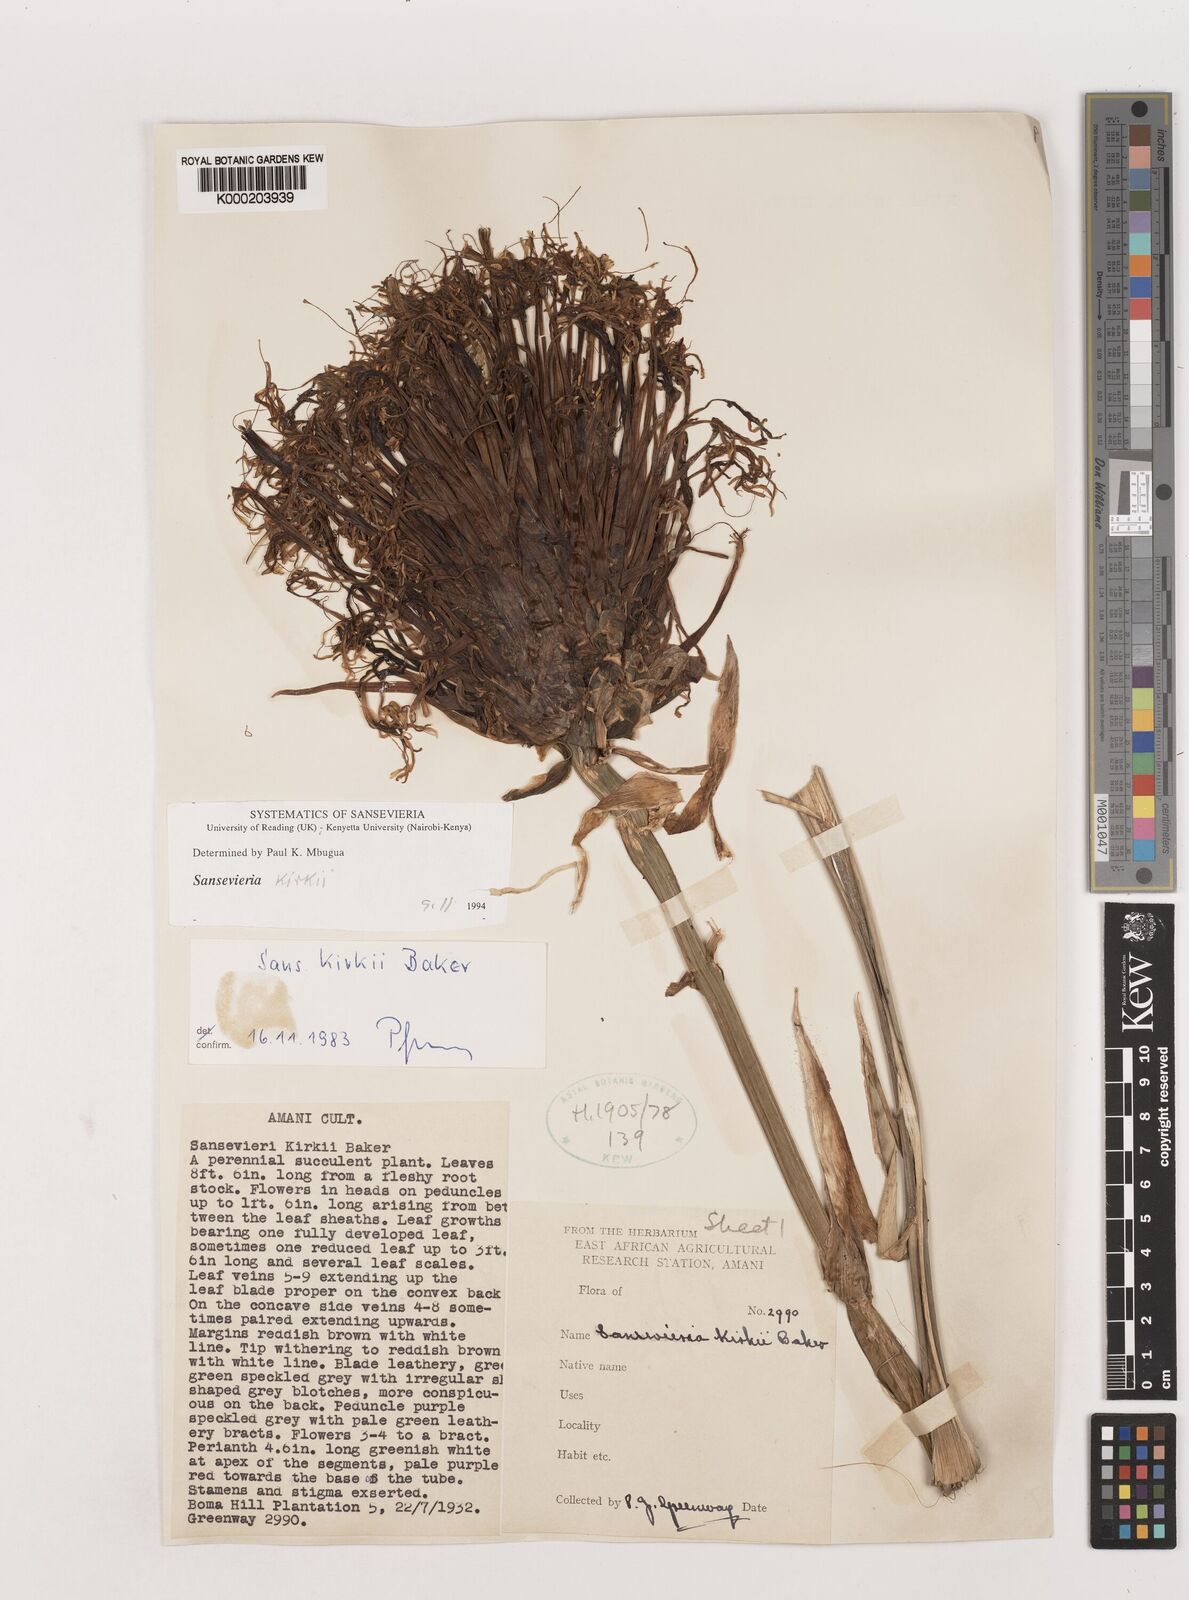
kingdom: Plantae
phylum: Tracheophyta
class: Liliopsida
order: Asparagales
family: Asparagaceae
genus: Dracaena
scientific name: Dracaena pethera
